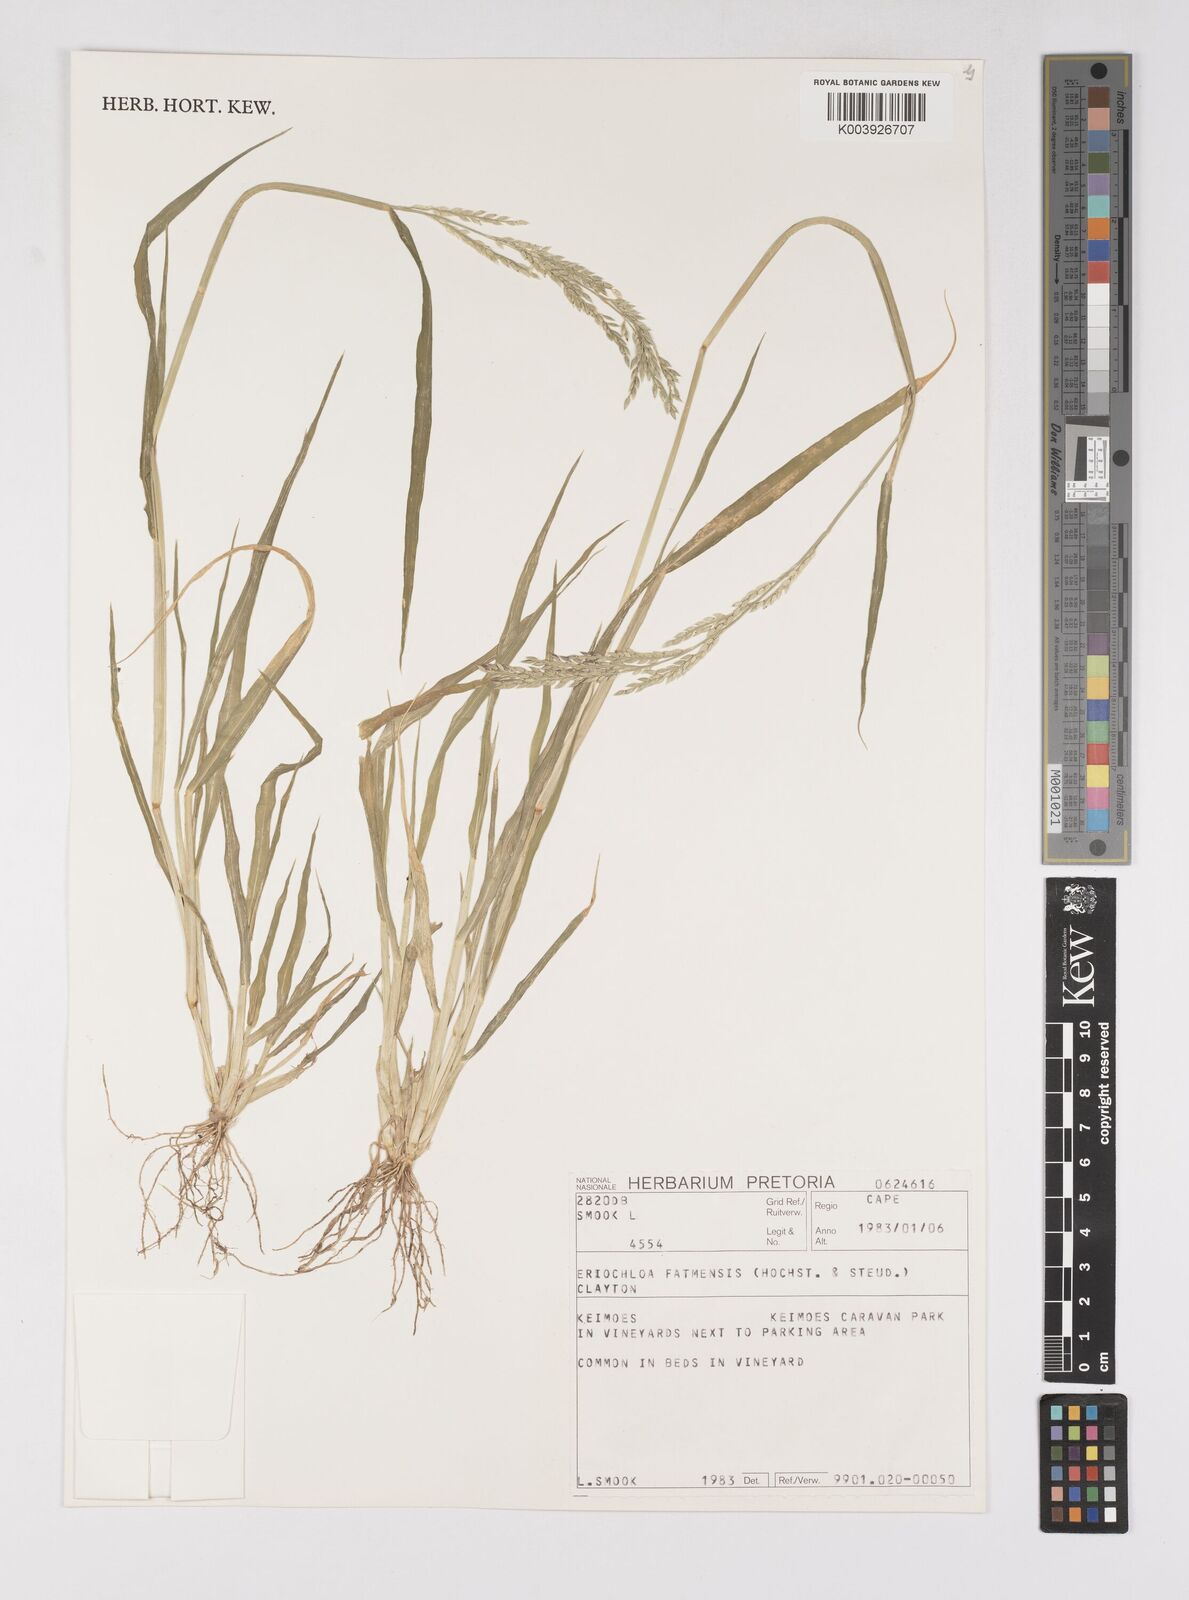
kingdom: Plantae
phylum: Tracheophyta
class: Liliopsida
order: Poales
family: Poaceae
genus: Eriochloa
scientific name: Eriochloa barbatus
